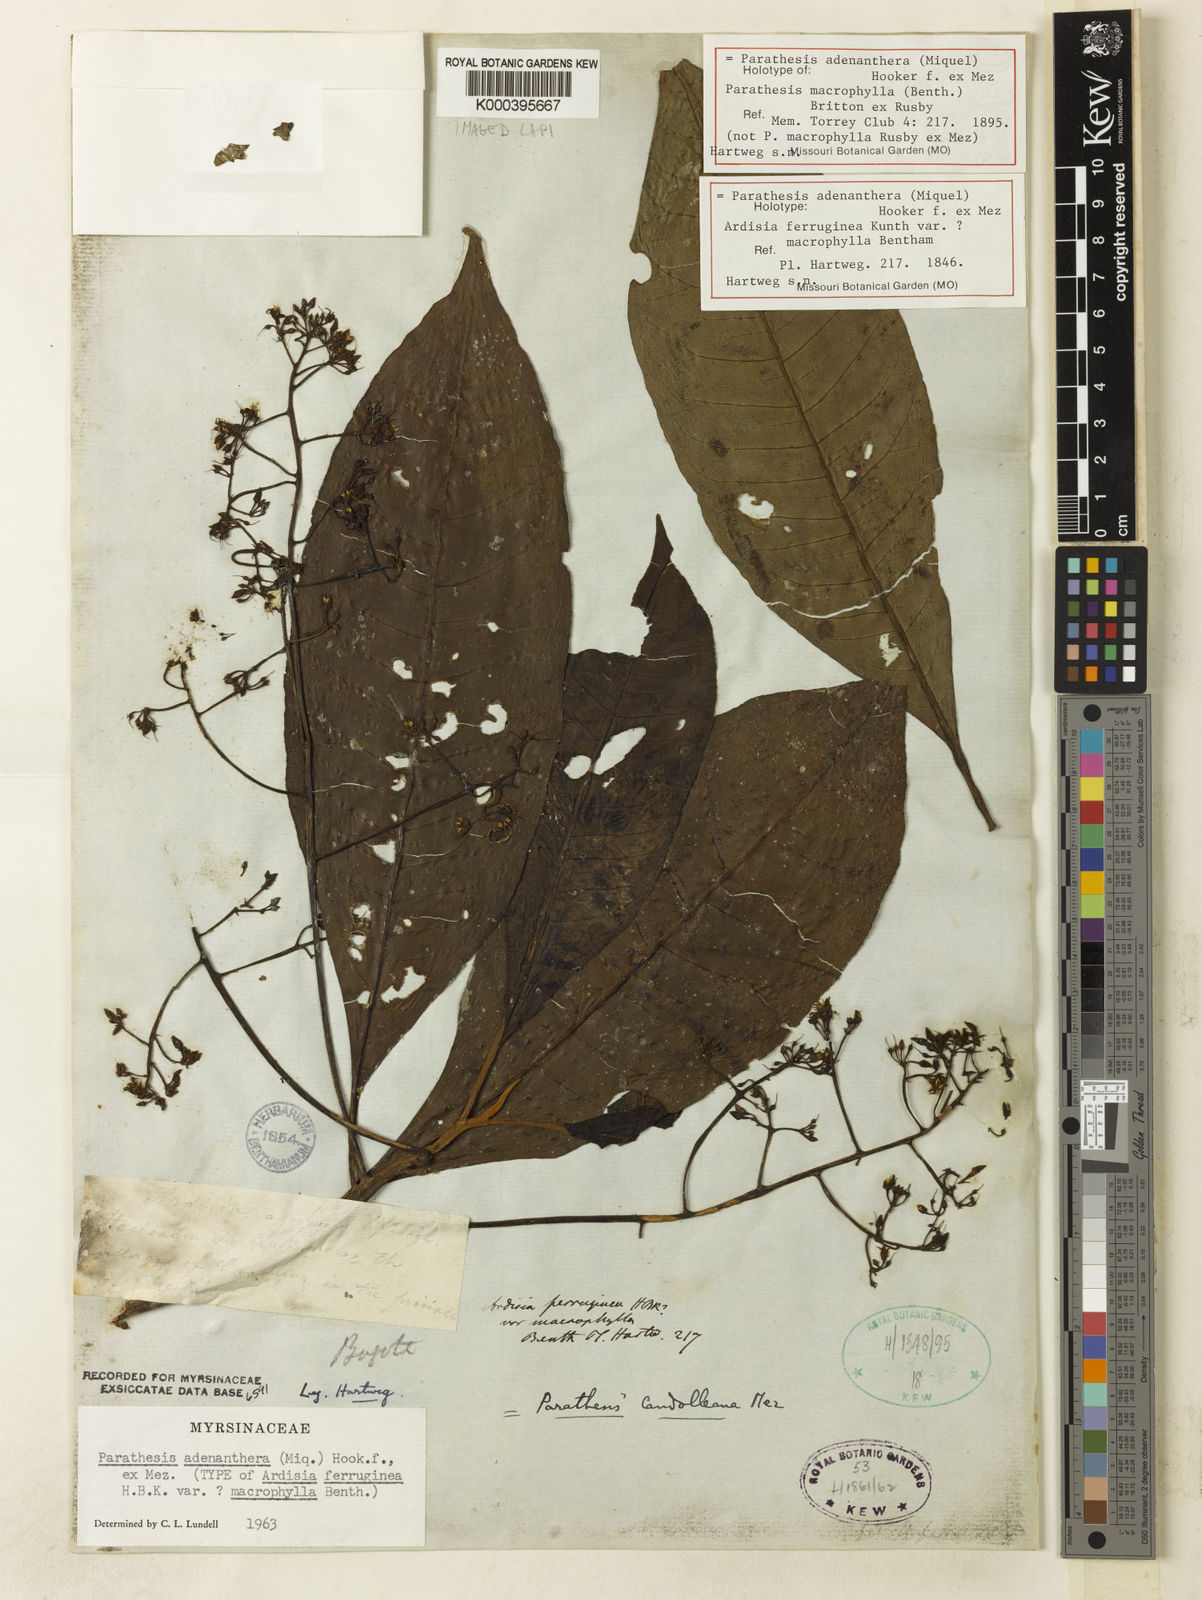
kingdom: Plantae
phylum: Tracheophyta
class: Magnoliopsida
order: Ericales
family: Primulaceae
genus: Parathesis
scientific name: Parathesis adenanthera
